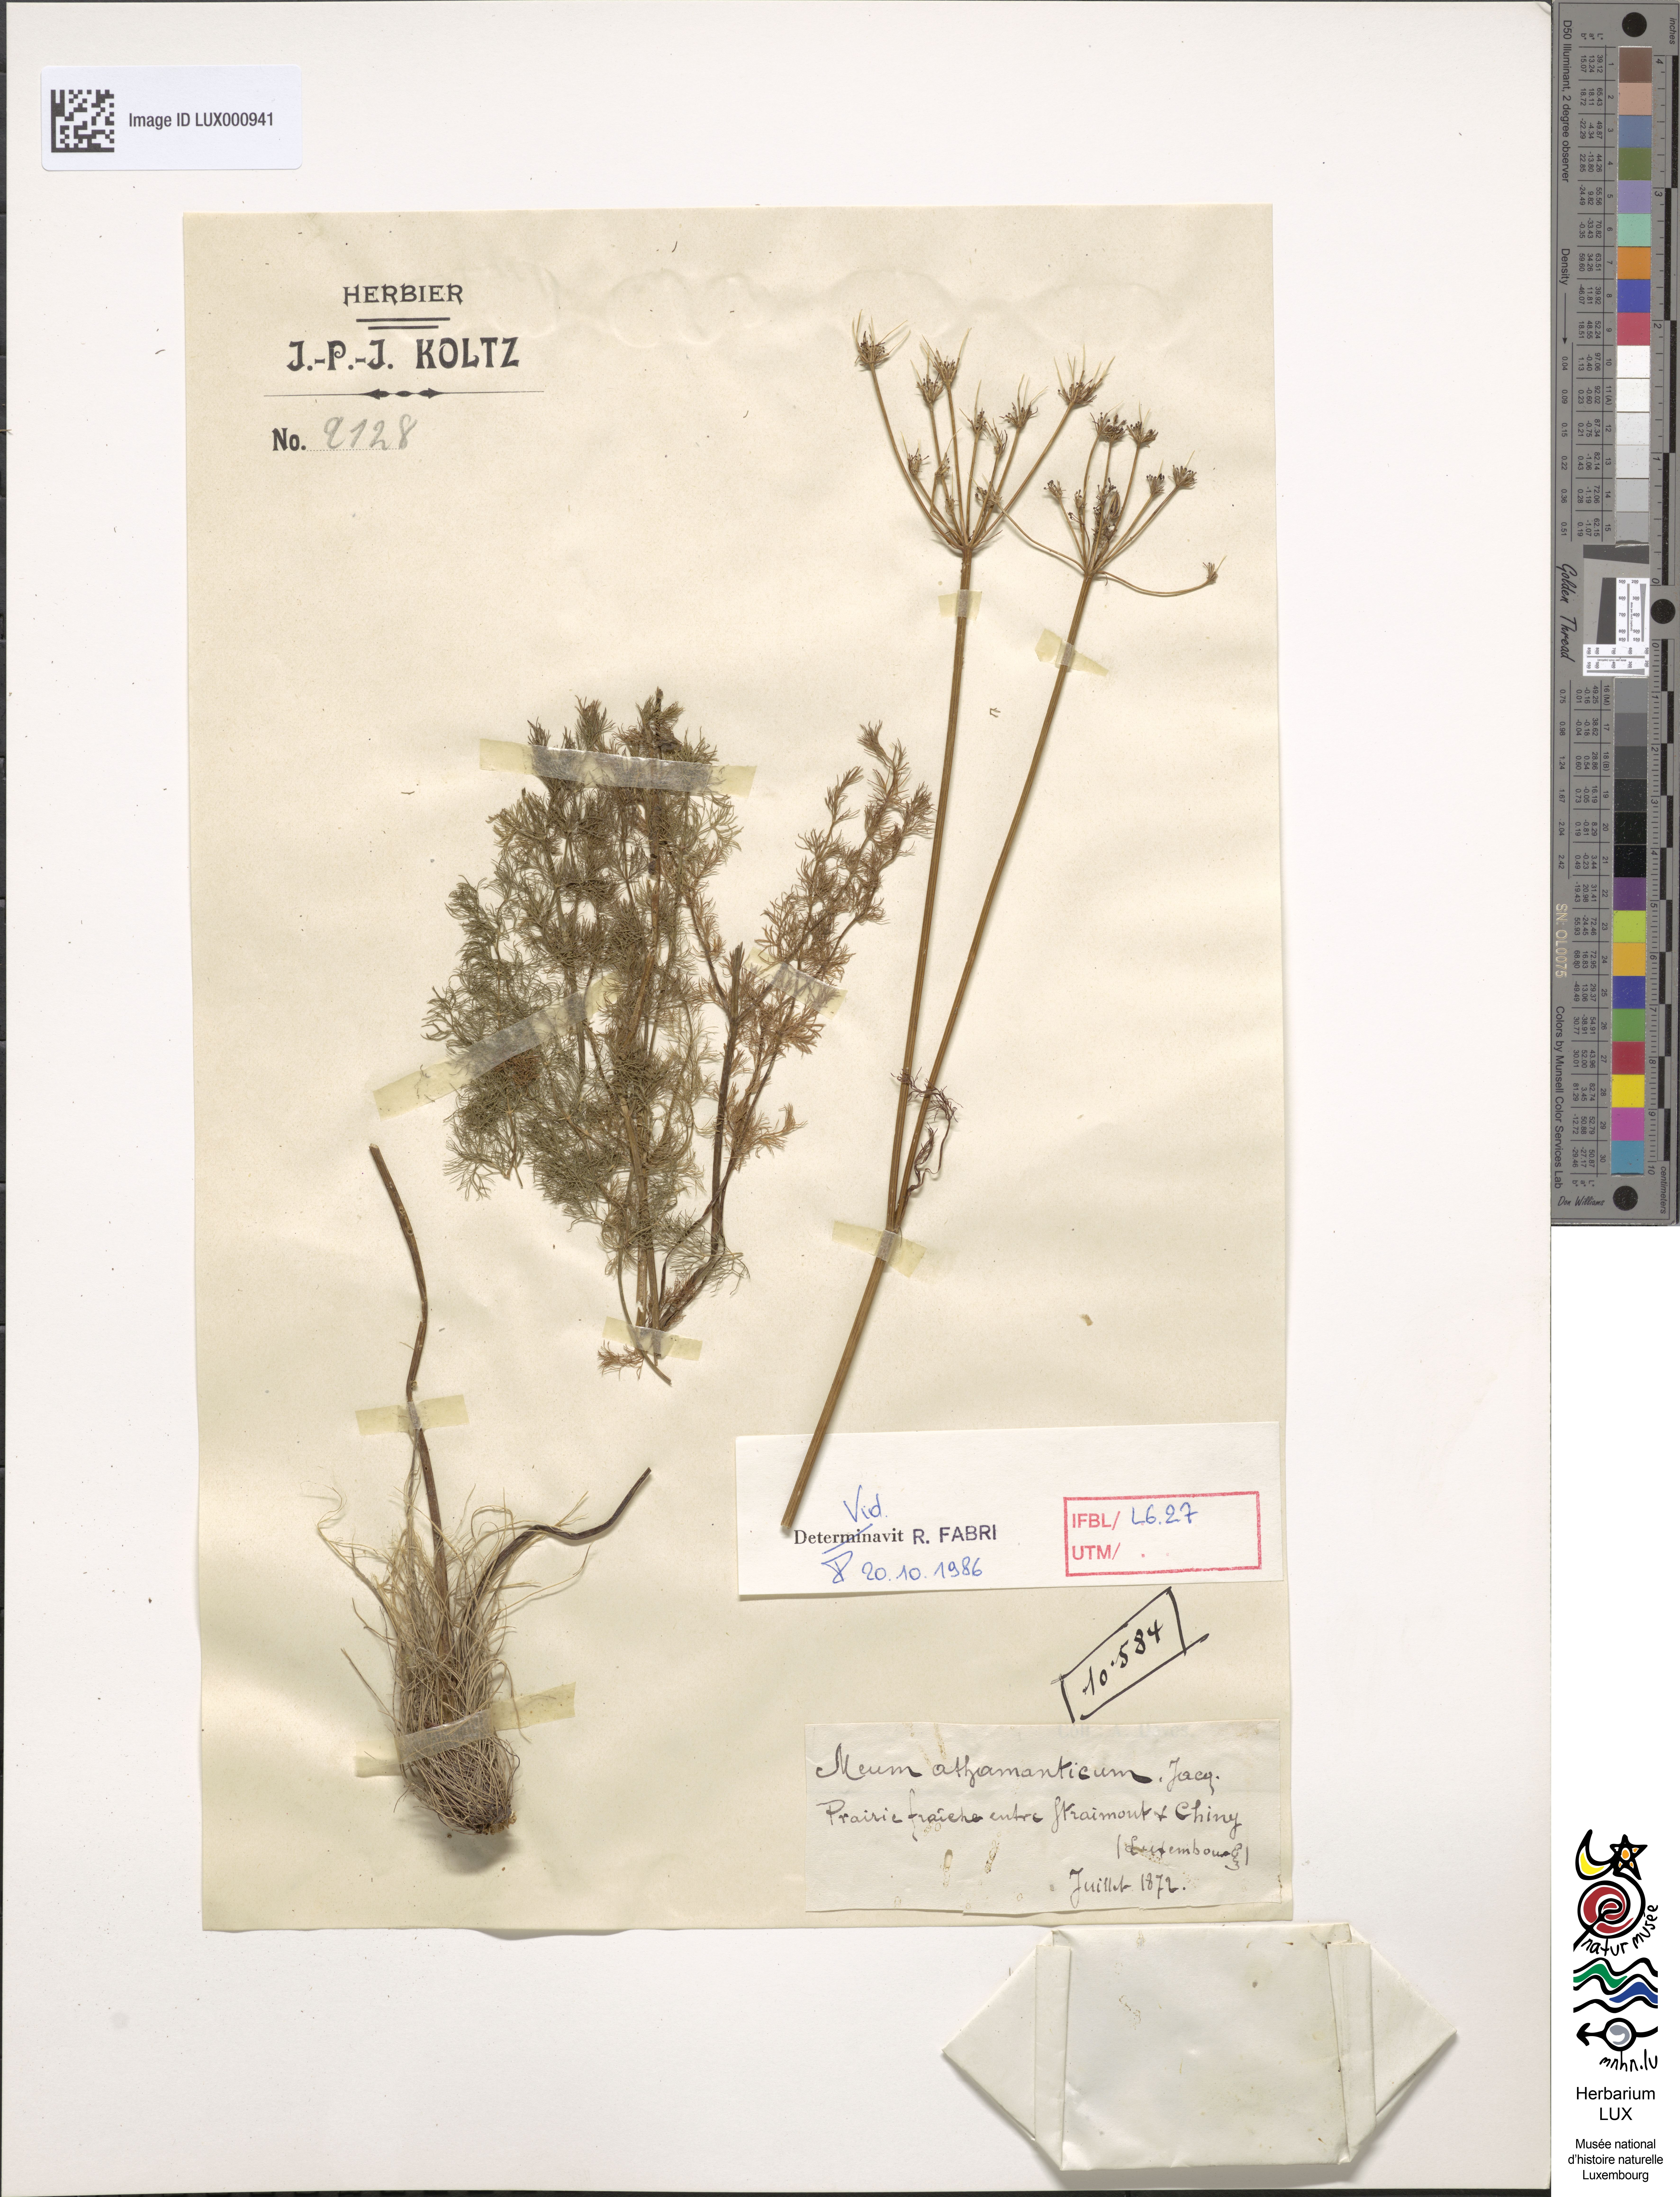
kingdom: Plantae
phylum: Tracheophyta
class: Magnoliopsida
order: Apiales
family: Apiaceae
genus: Meum
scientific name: Meum athamanticum
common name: Spignel
